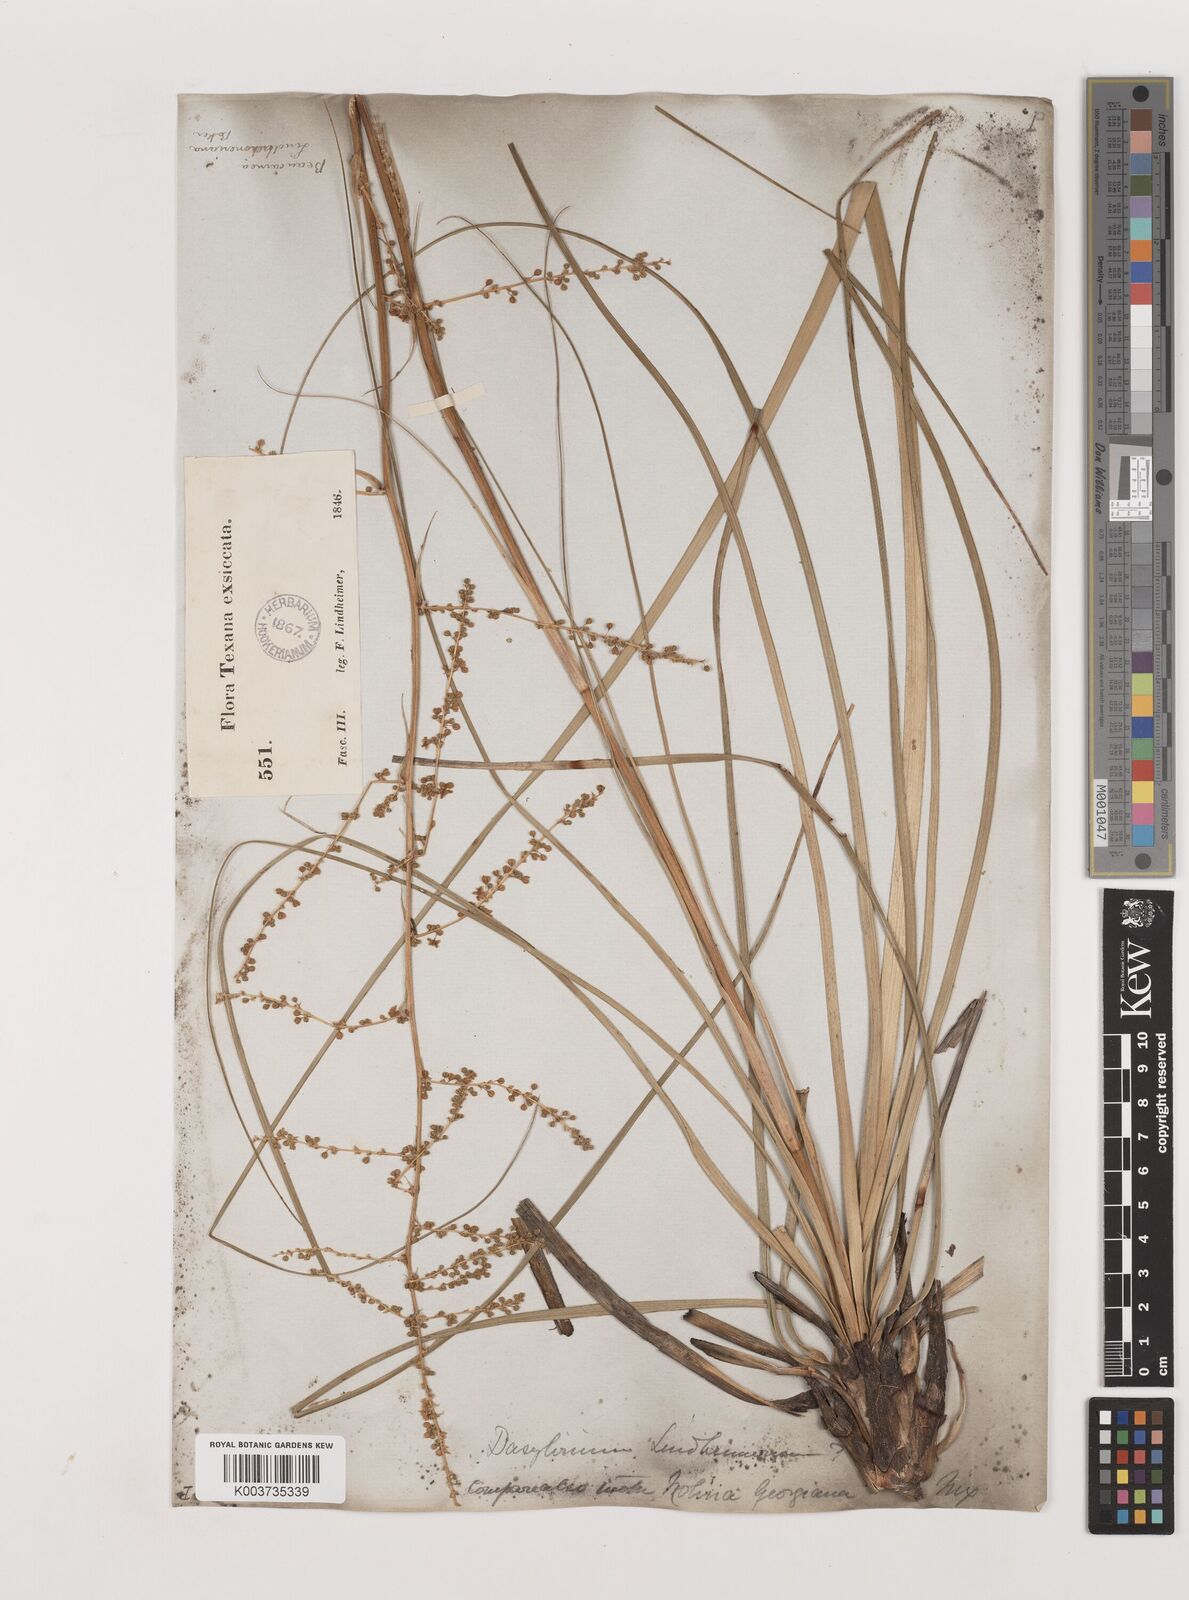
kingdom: Plantae
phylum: Tracheophyta
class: Liliopsida
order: Asparagales
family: Asparagaceae
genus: Nolina
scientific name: Nolina lindheimeriana
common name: Lindheimer's bear-grass
